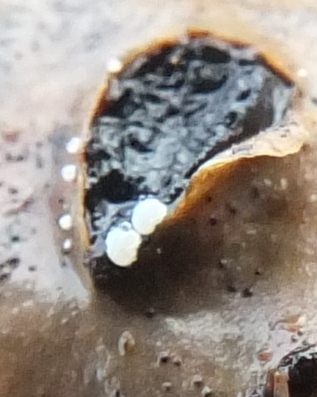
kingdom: Fungi
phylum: Ascomycota
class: Leotiomycetes
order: Helotiales
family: Hyaloscyphaceae
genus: Polydesmia
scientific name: Polydesmia pruinosa
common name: dunskive
